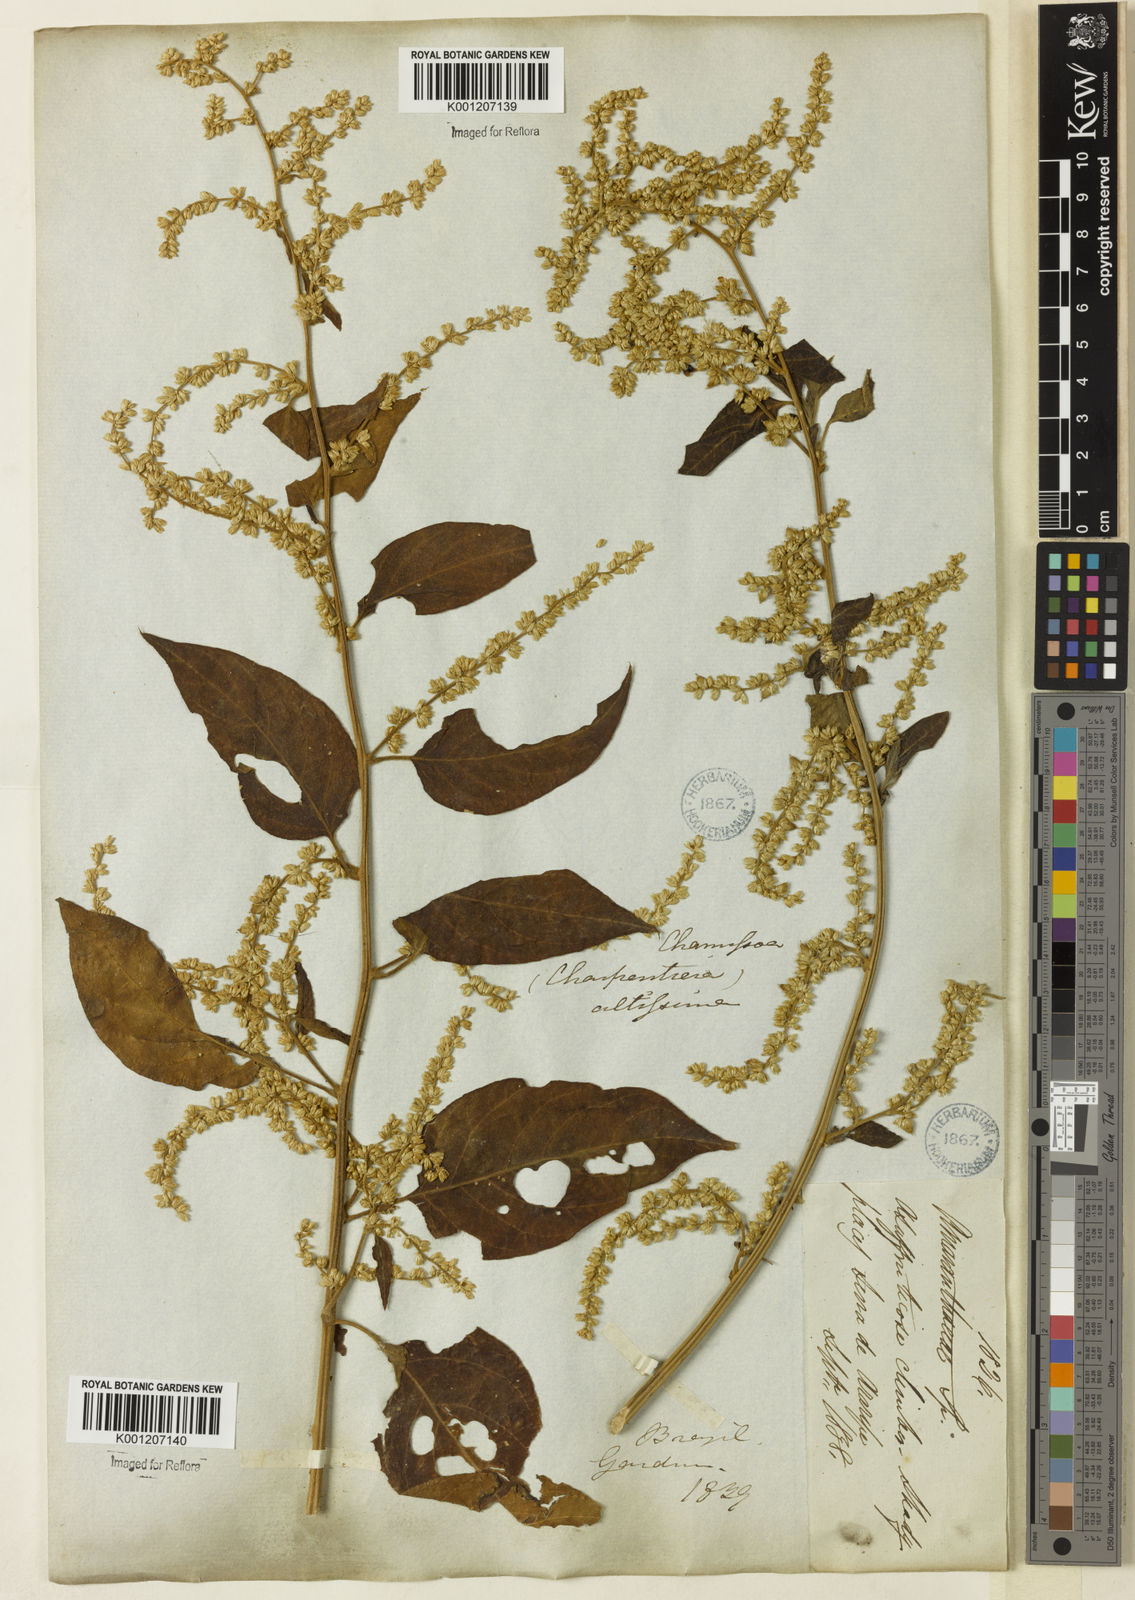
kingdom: Plantae
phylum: Tracheophyta
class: Magnoliopsida
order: Caryophyllales
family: Amaranthaceae
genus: Chamissoa
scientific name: Chamissoa altissima
